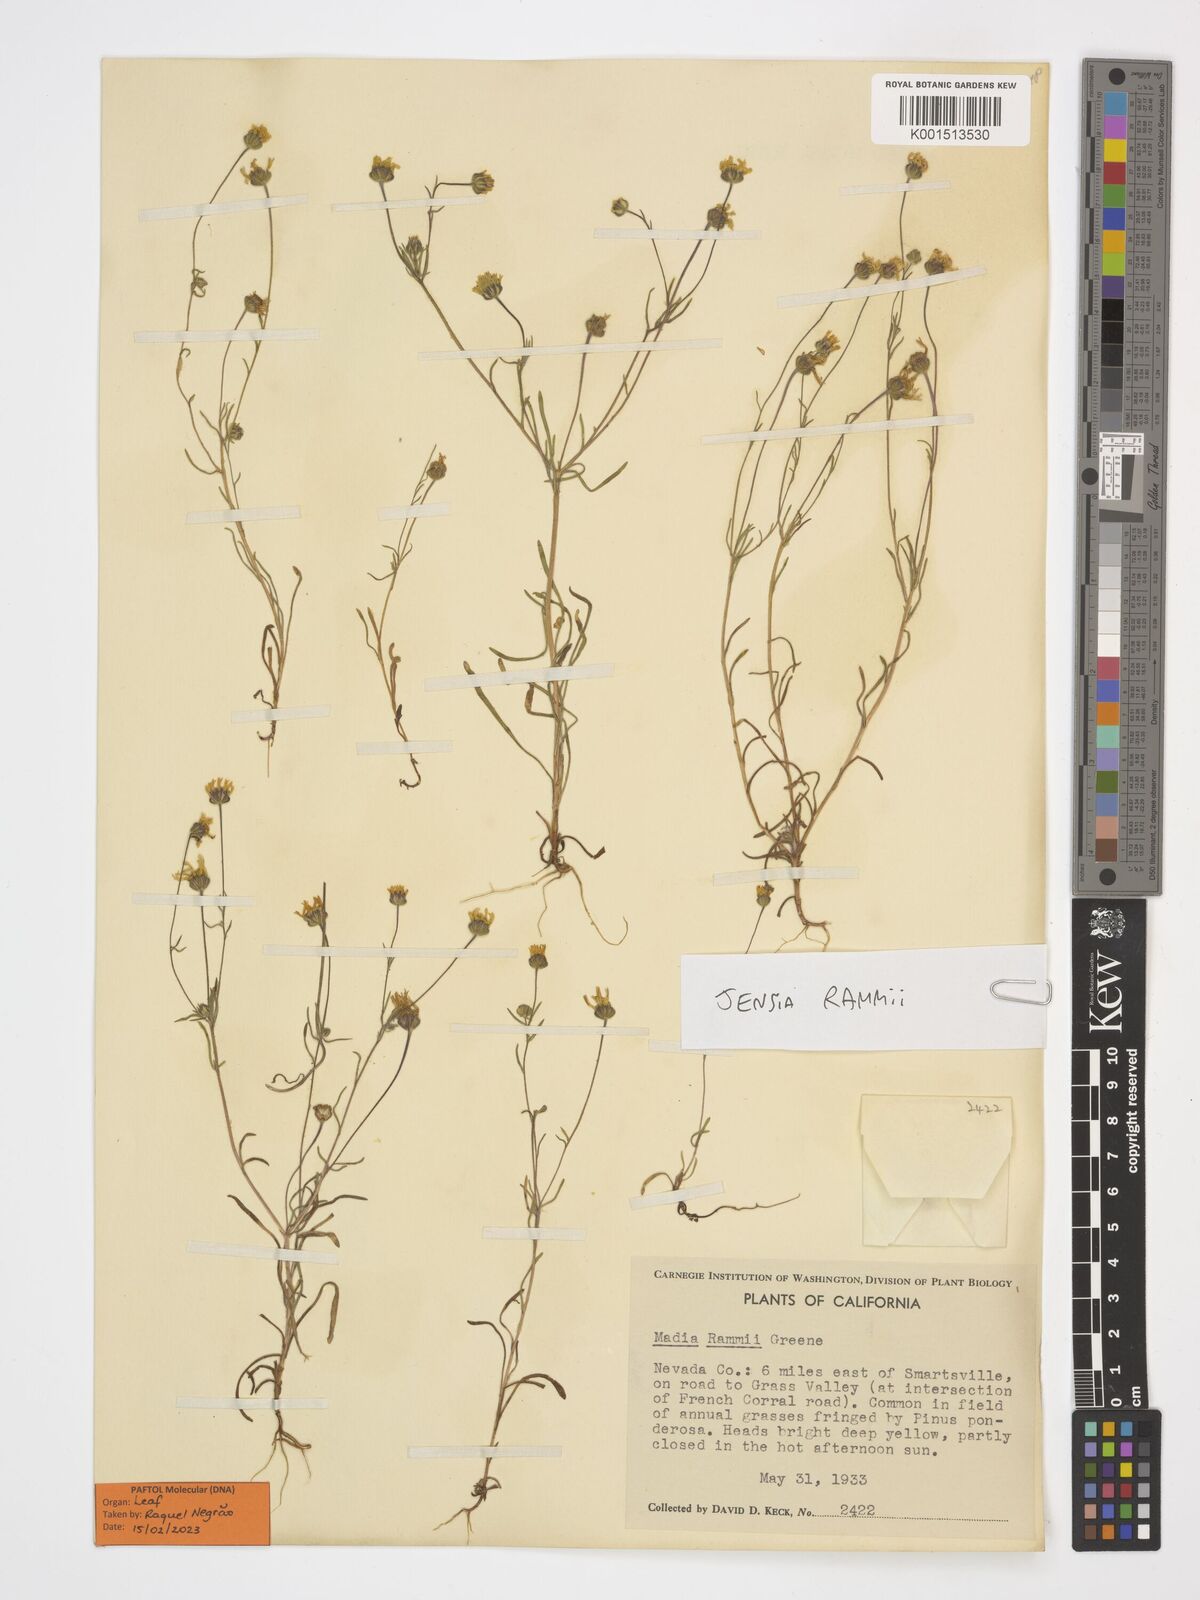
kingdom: Plantae
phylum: Tracheophyta
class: Magnoliopsida
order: Asterales
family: Asteraceae
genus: Jensia
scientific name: Jensia rammii
